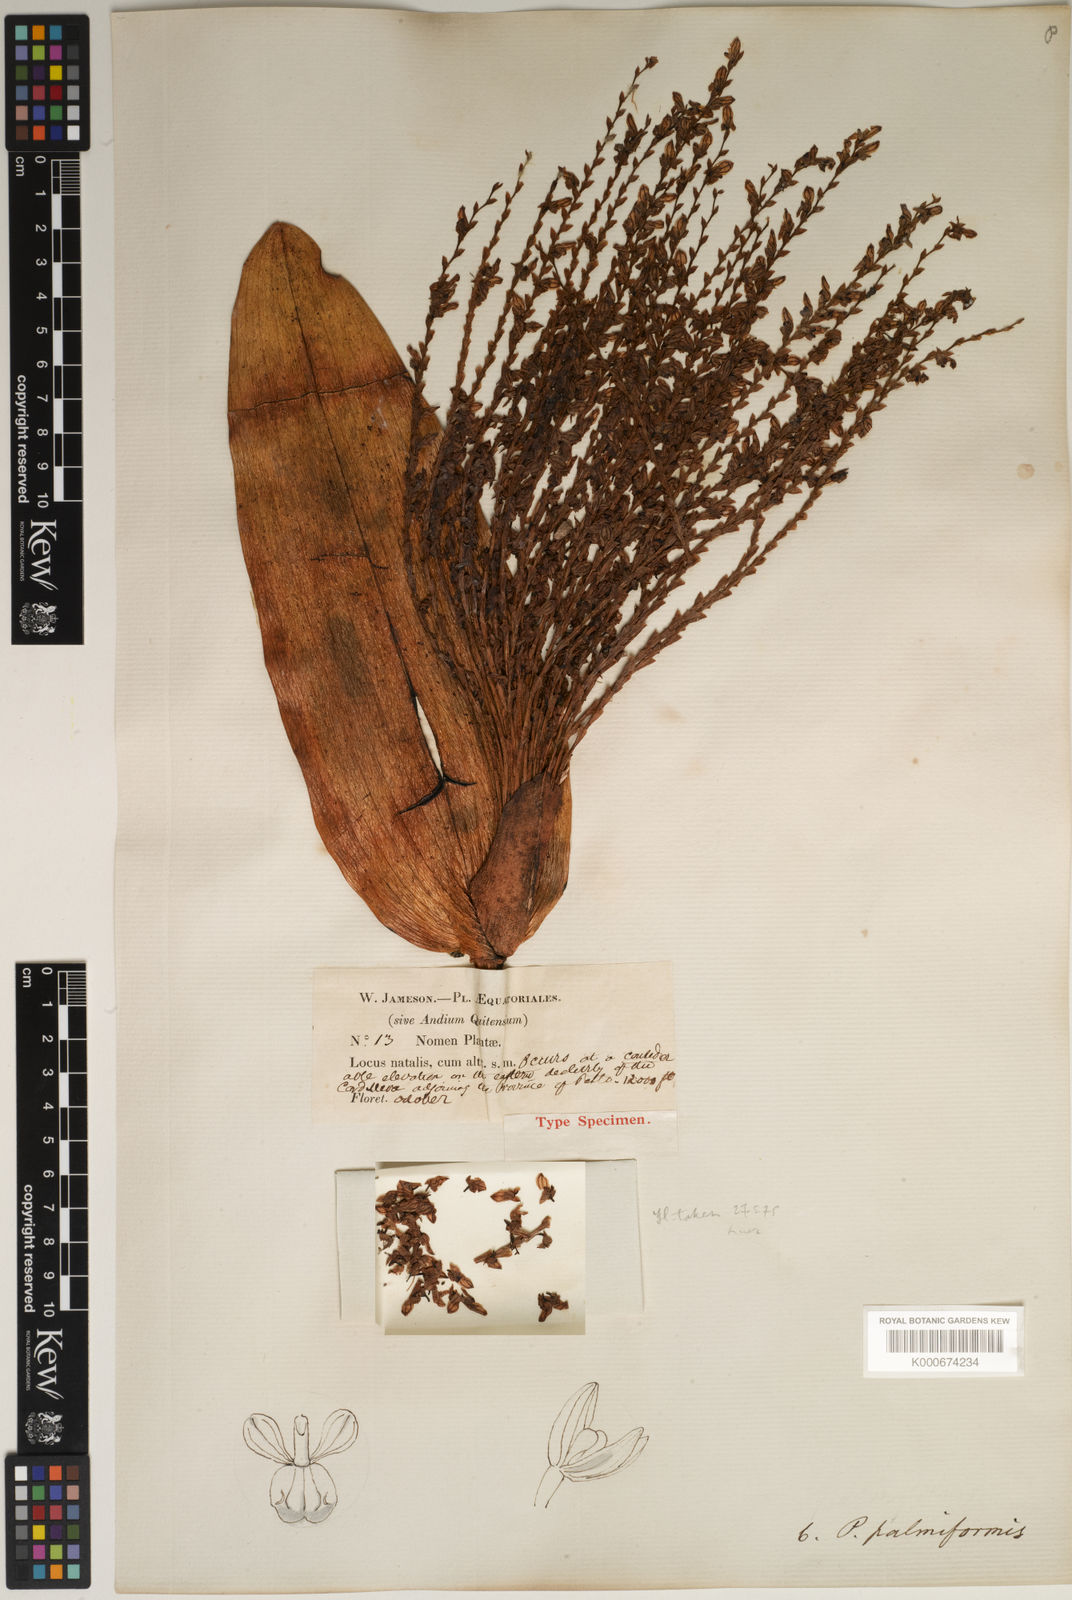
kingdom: Plantae
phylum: Tracheophyta
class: Liliopsida
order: Asparagales
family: Orchidaceae
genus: Stelis
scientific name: Stelis cassidis
